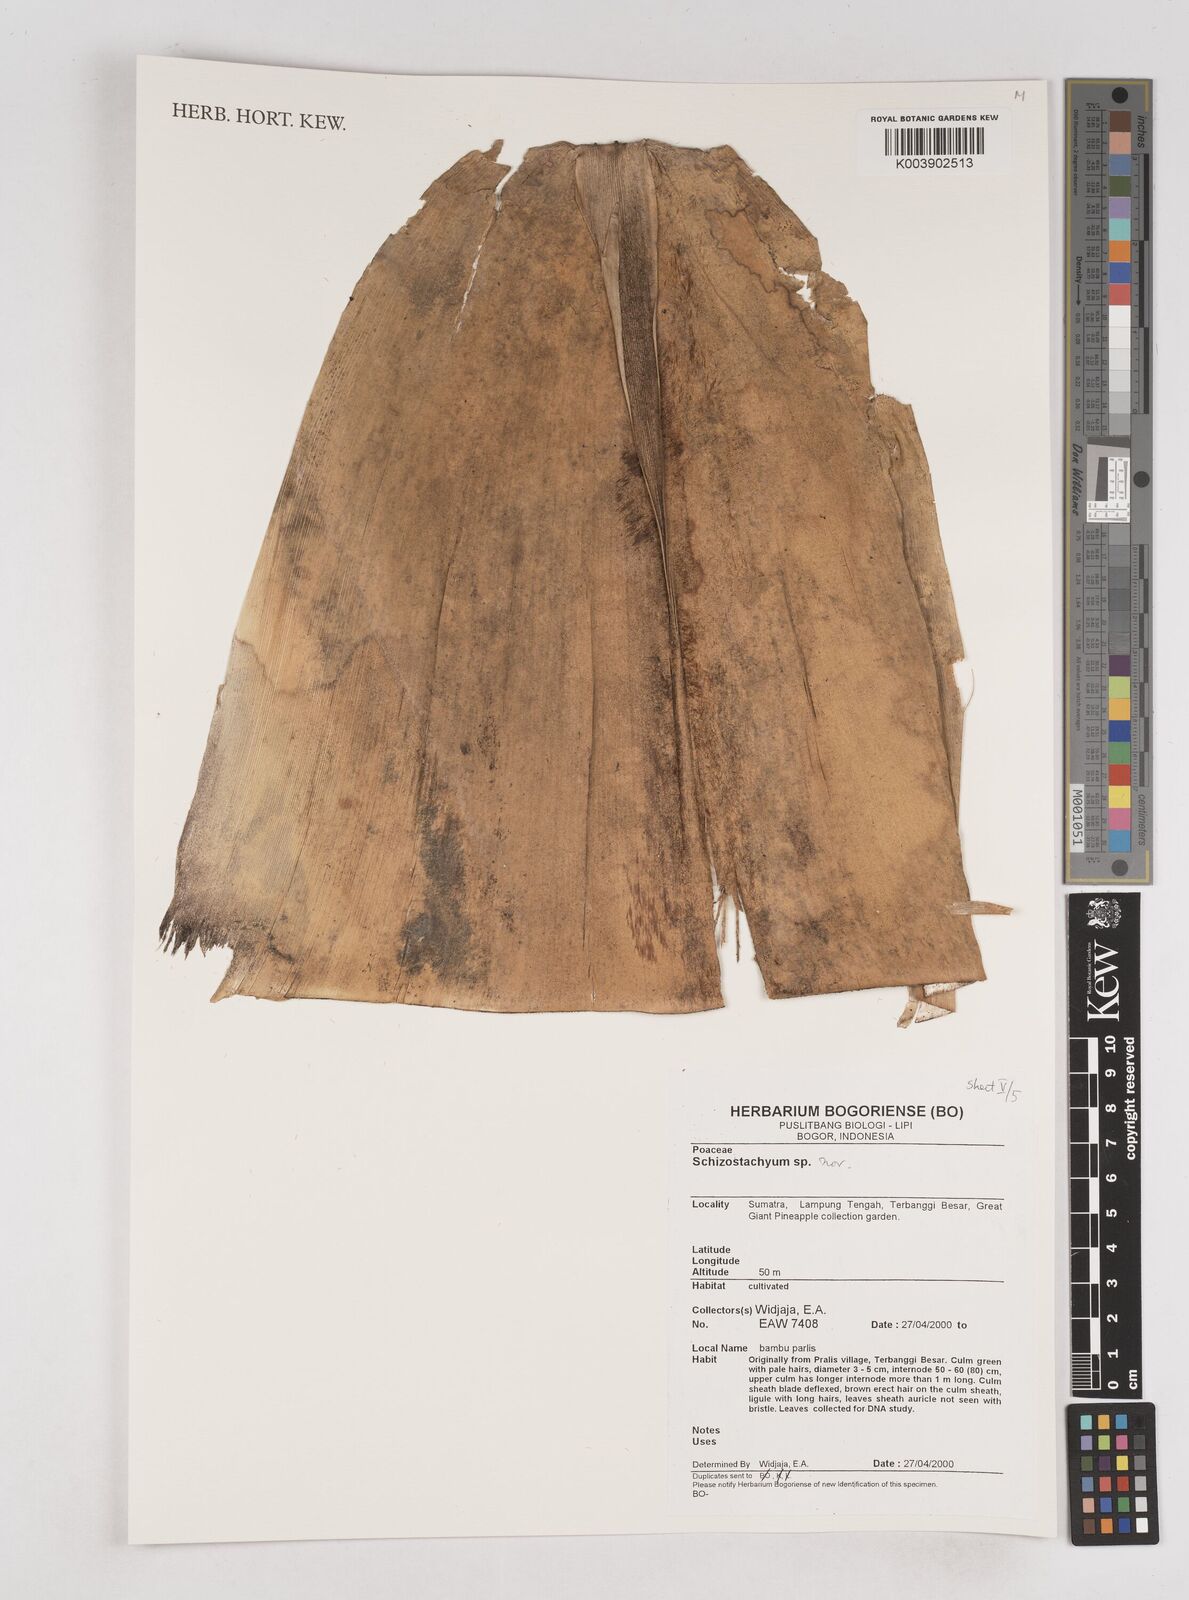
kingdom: Plantae
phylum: Tracheophyta
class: Liliopsida
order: Poales
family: Poaceae
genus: Schizostachyum
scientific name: Schizostachyum
